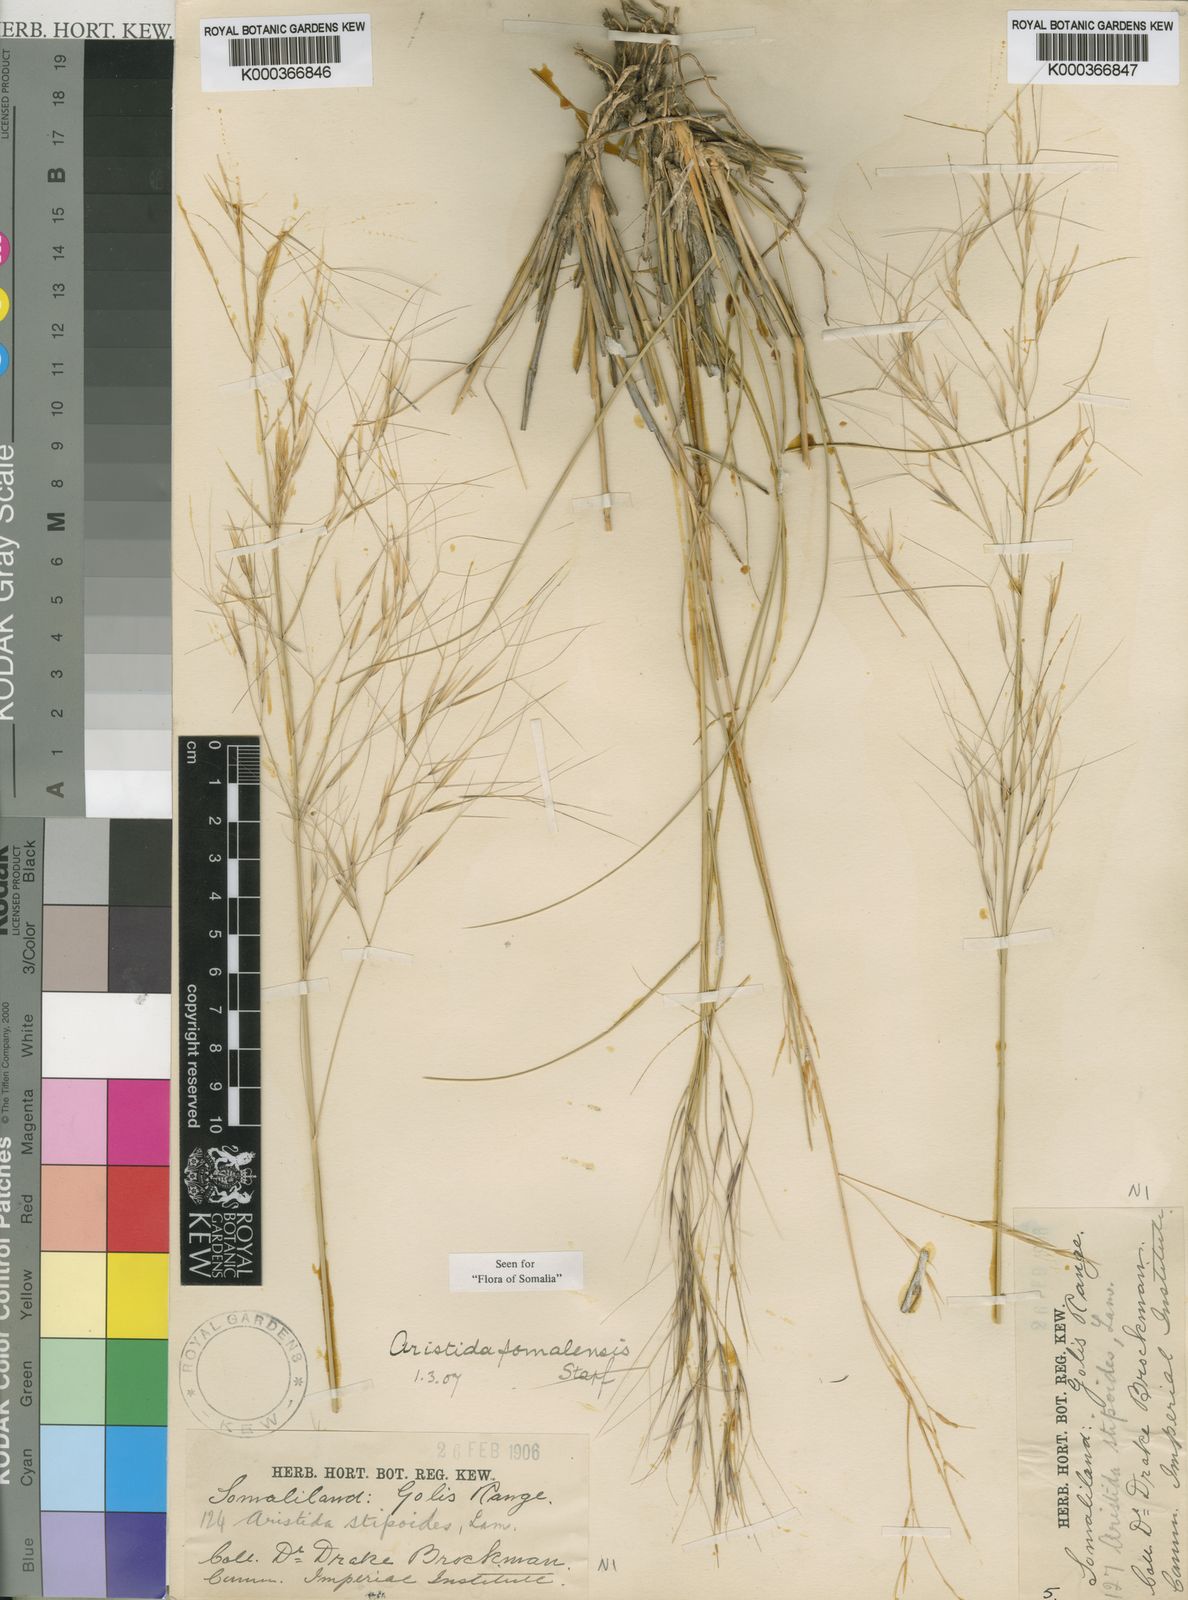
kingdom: Plantae
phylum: Tracheophyta
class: Liliopsida
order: Poales
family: Poaceae
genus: Aristida
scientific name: Aristida somalensis
